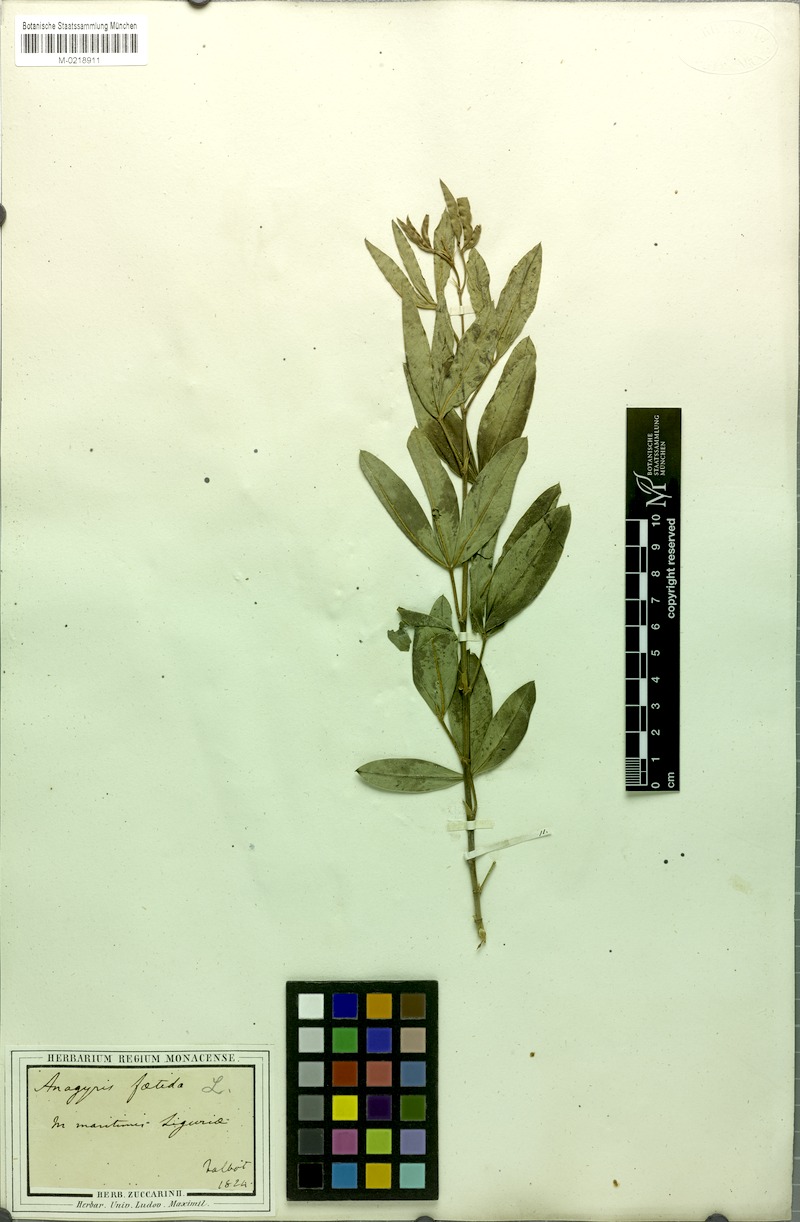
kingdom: Plantae
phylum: Tracheophyta
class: Magnoliopsida
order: Fabales
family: Fabaceae
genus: Anagyris
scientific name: Anagyris foetida
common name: Stinking bean trefoil
